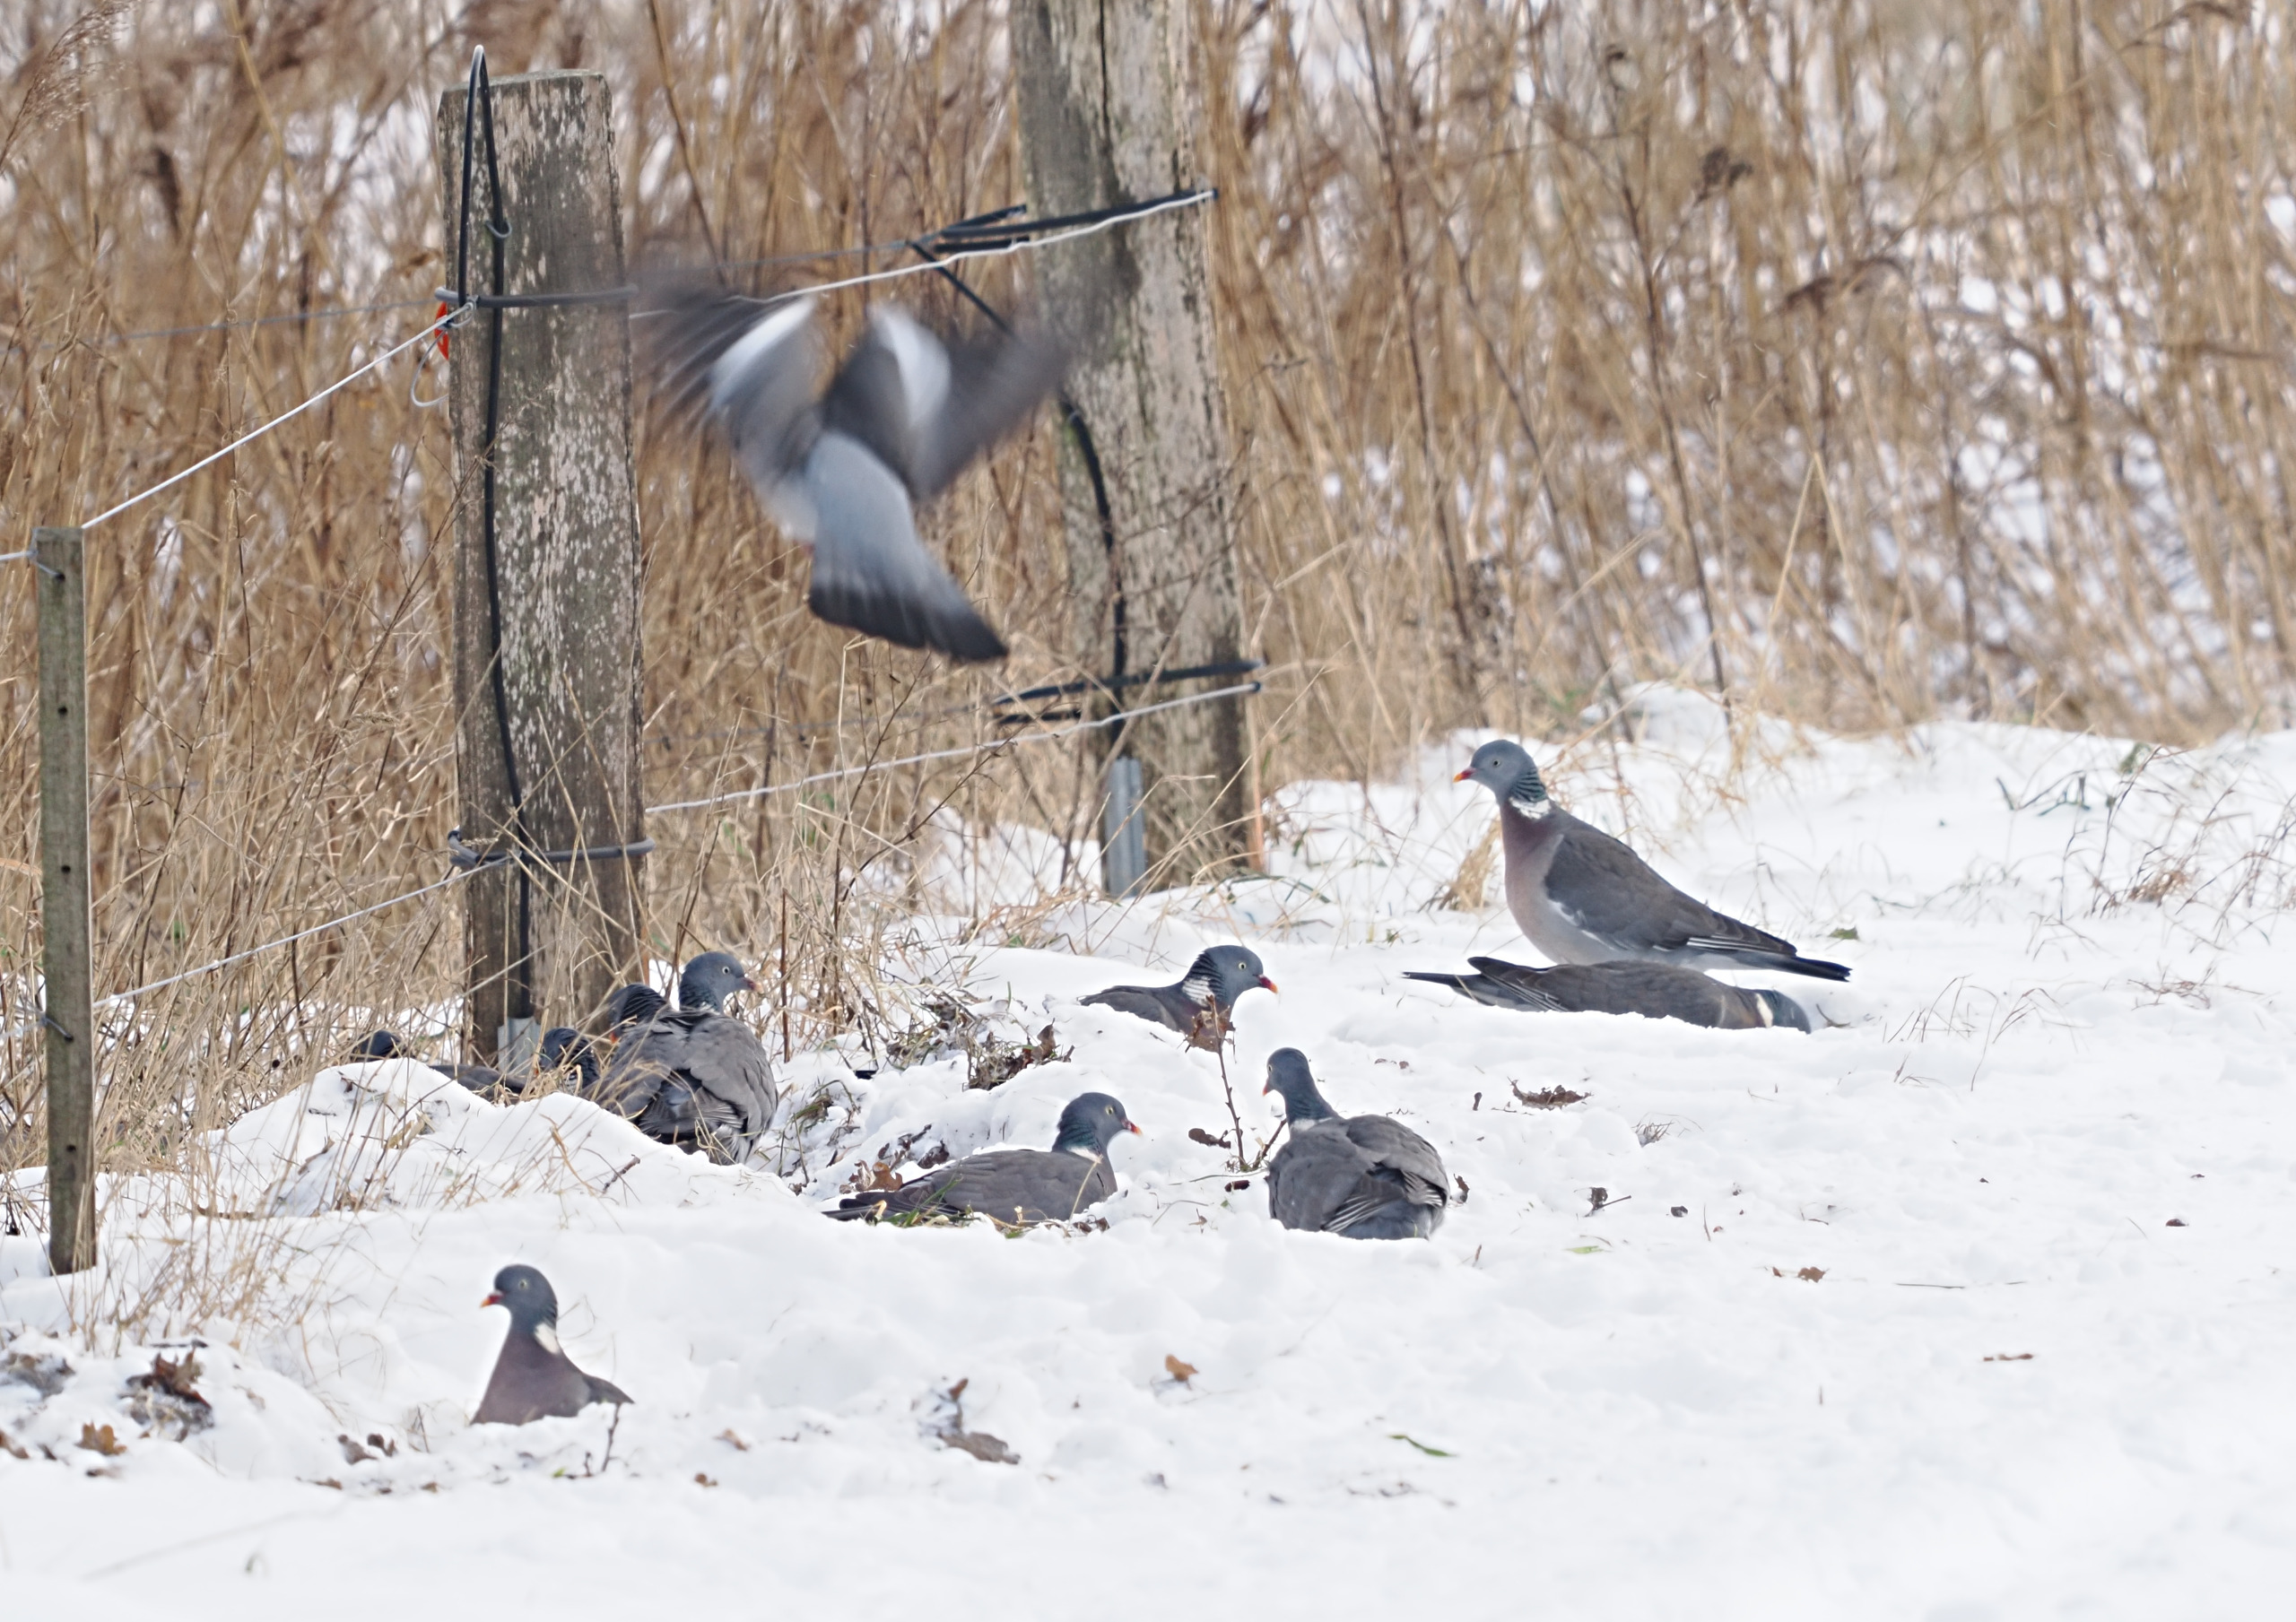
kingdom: Animalia
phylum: Chordata
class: Aves
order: Columbiformes
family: Columbidae
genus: Columba
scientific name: Columba palumbus
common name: Ringdue
